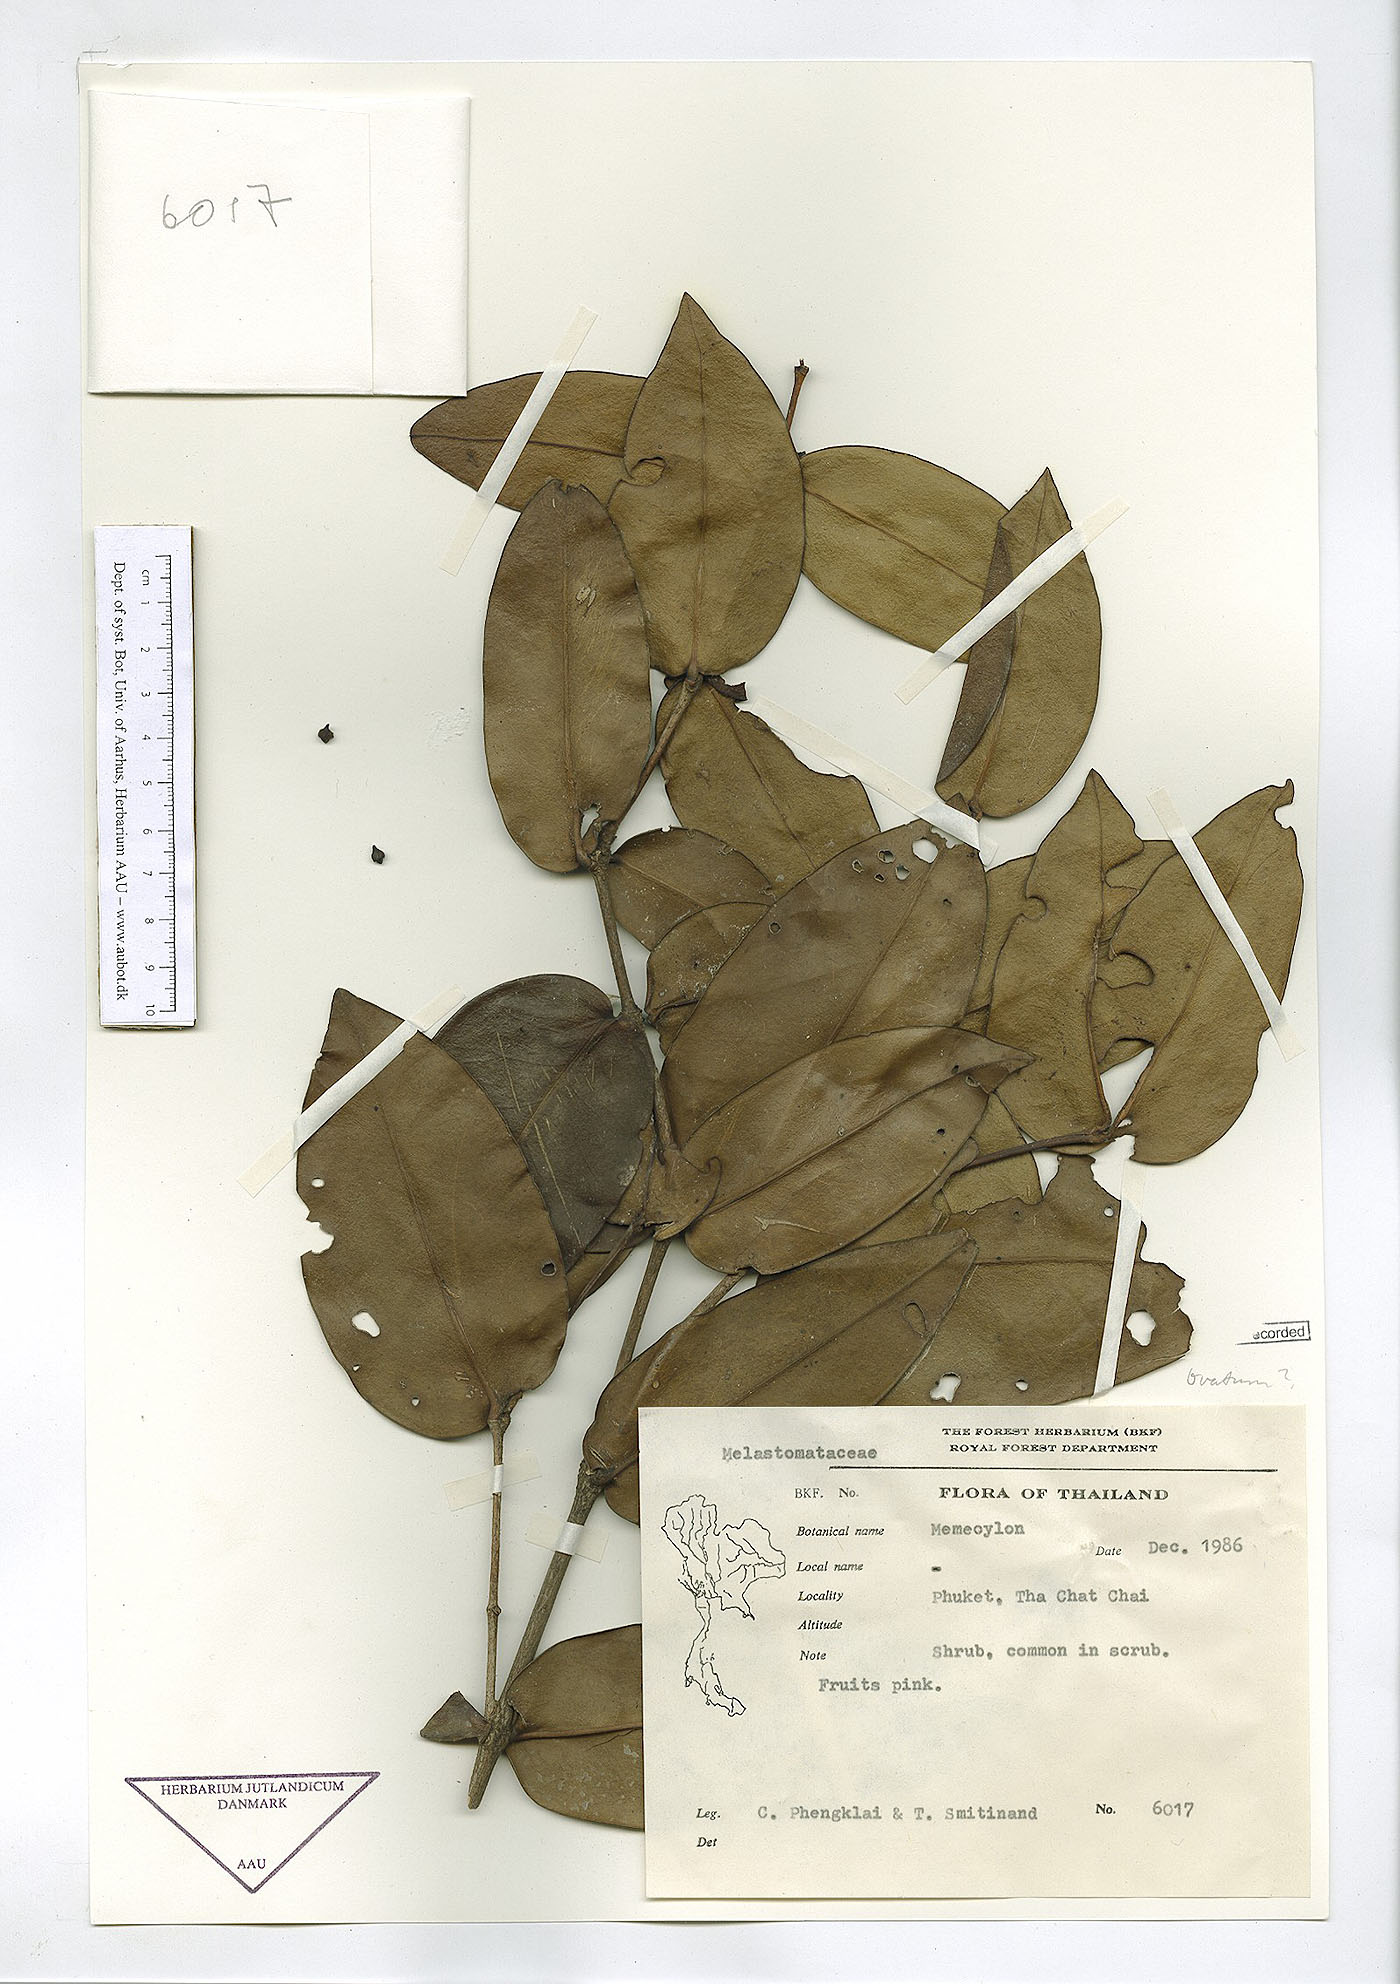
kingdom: Plantae
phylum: Tracheophyta
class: Magnoliopsida
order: Myrtales
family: Melastomataceae
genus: Memecylon
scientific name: Memecylon caeruleum
